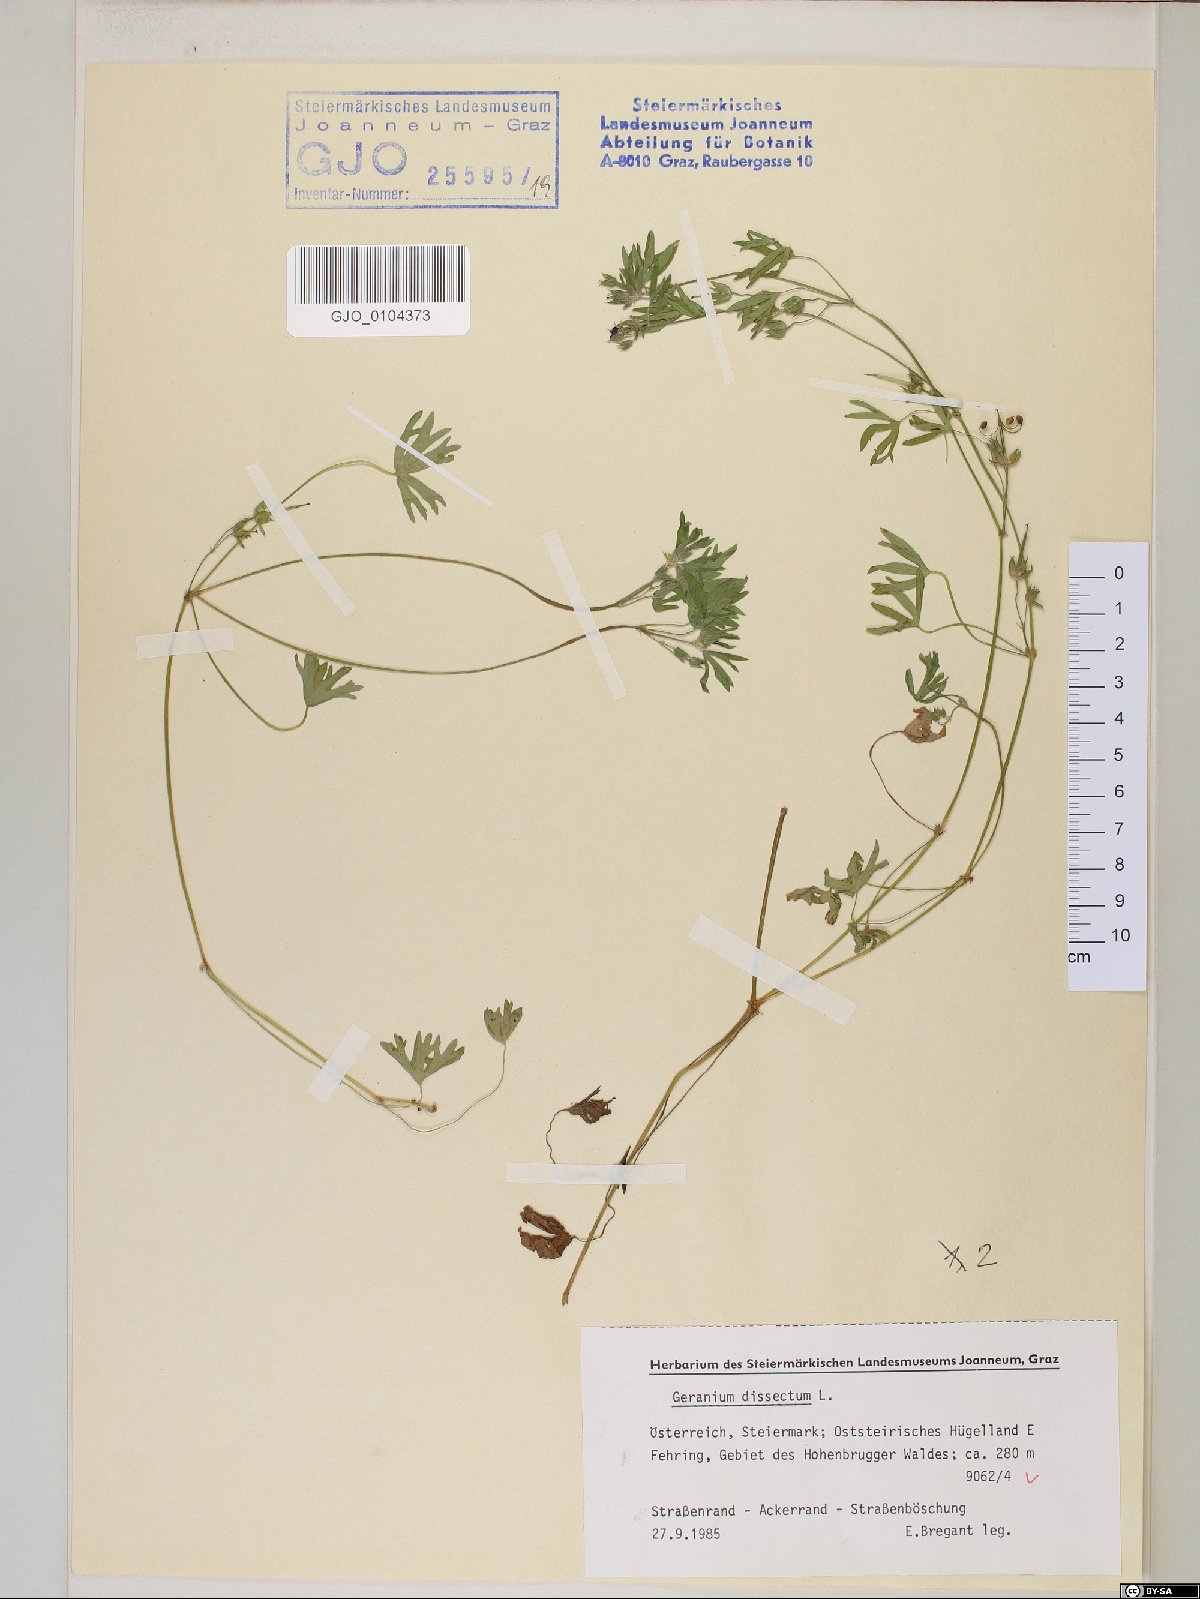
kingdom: Plantae
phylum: Tracheophyta
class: Magnoliopsida
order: Geraniales
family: Geraniaceae
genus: Geranium
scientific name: Geranium dissectum
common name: Cut-leaved crane's-bill
